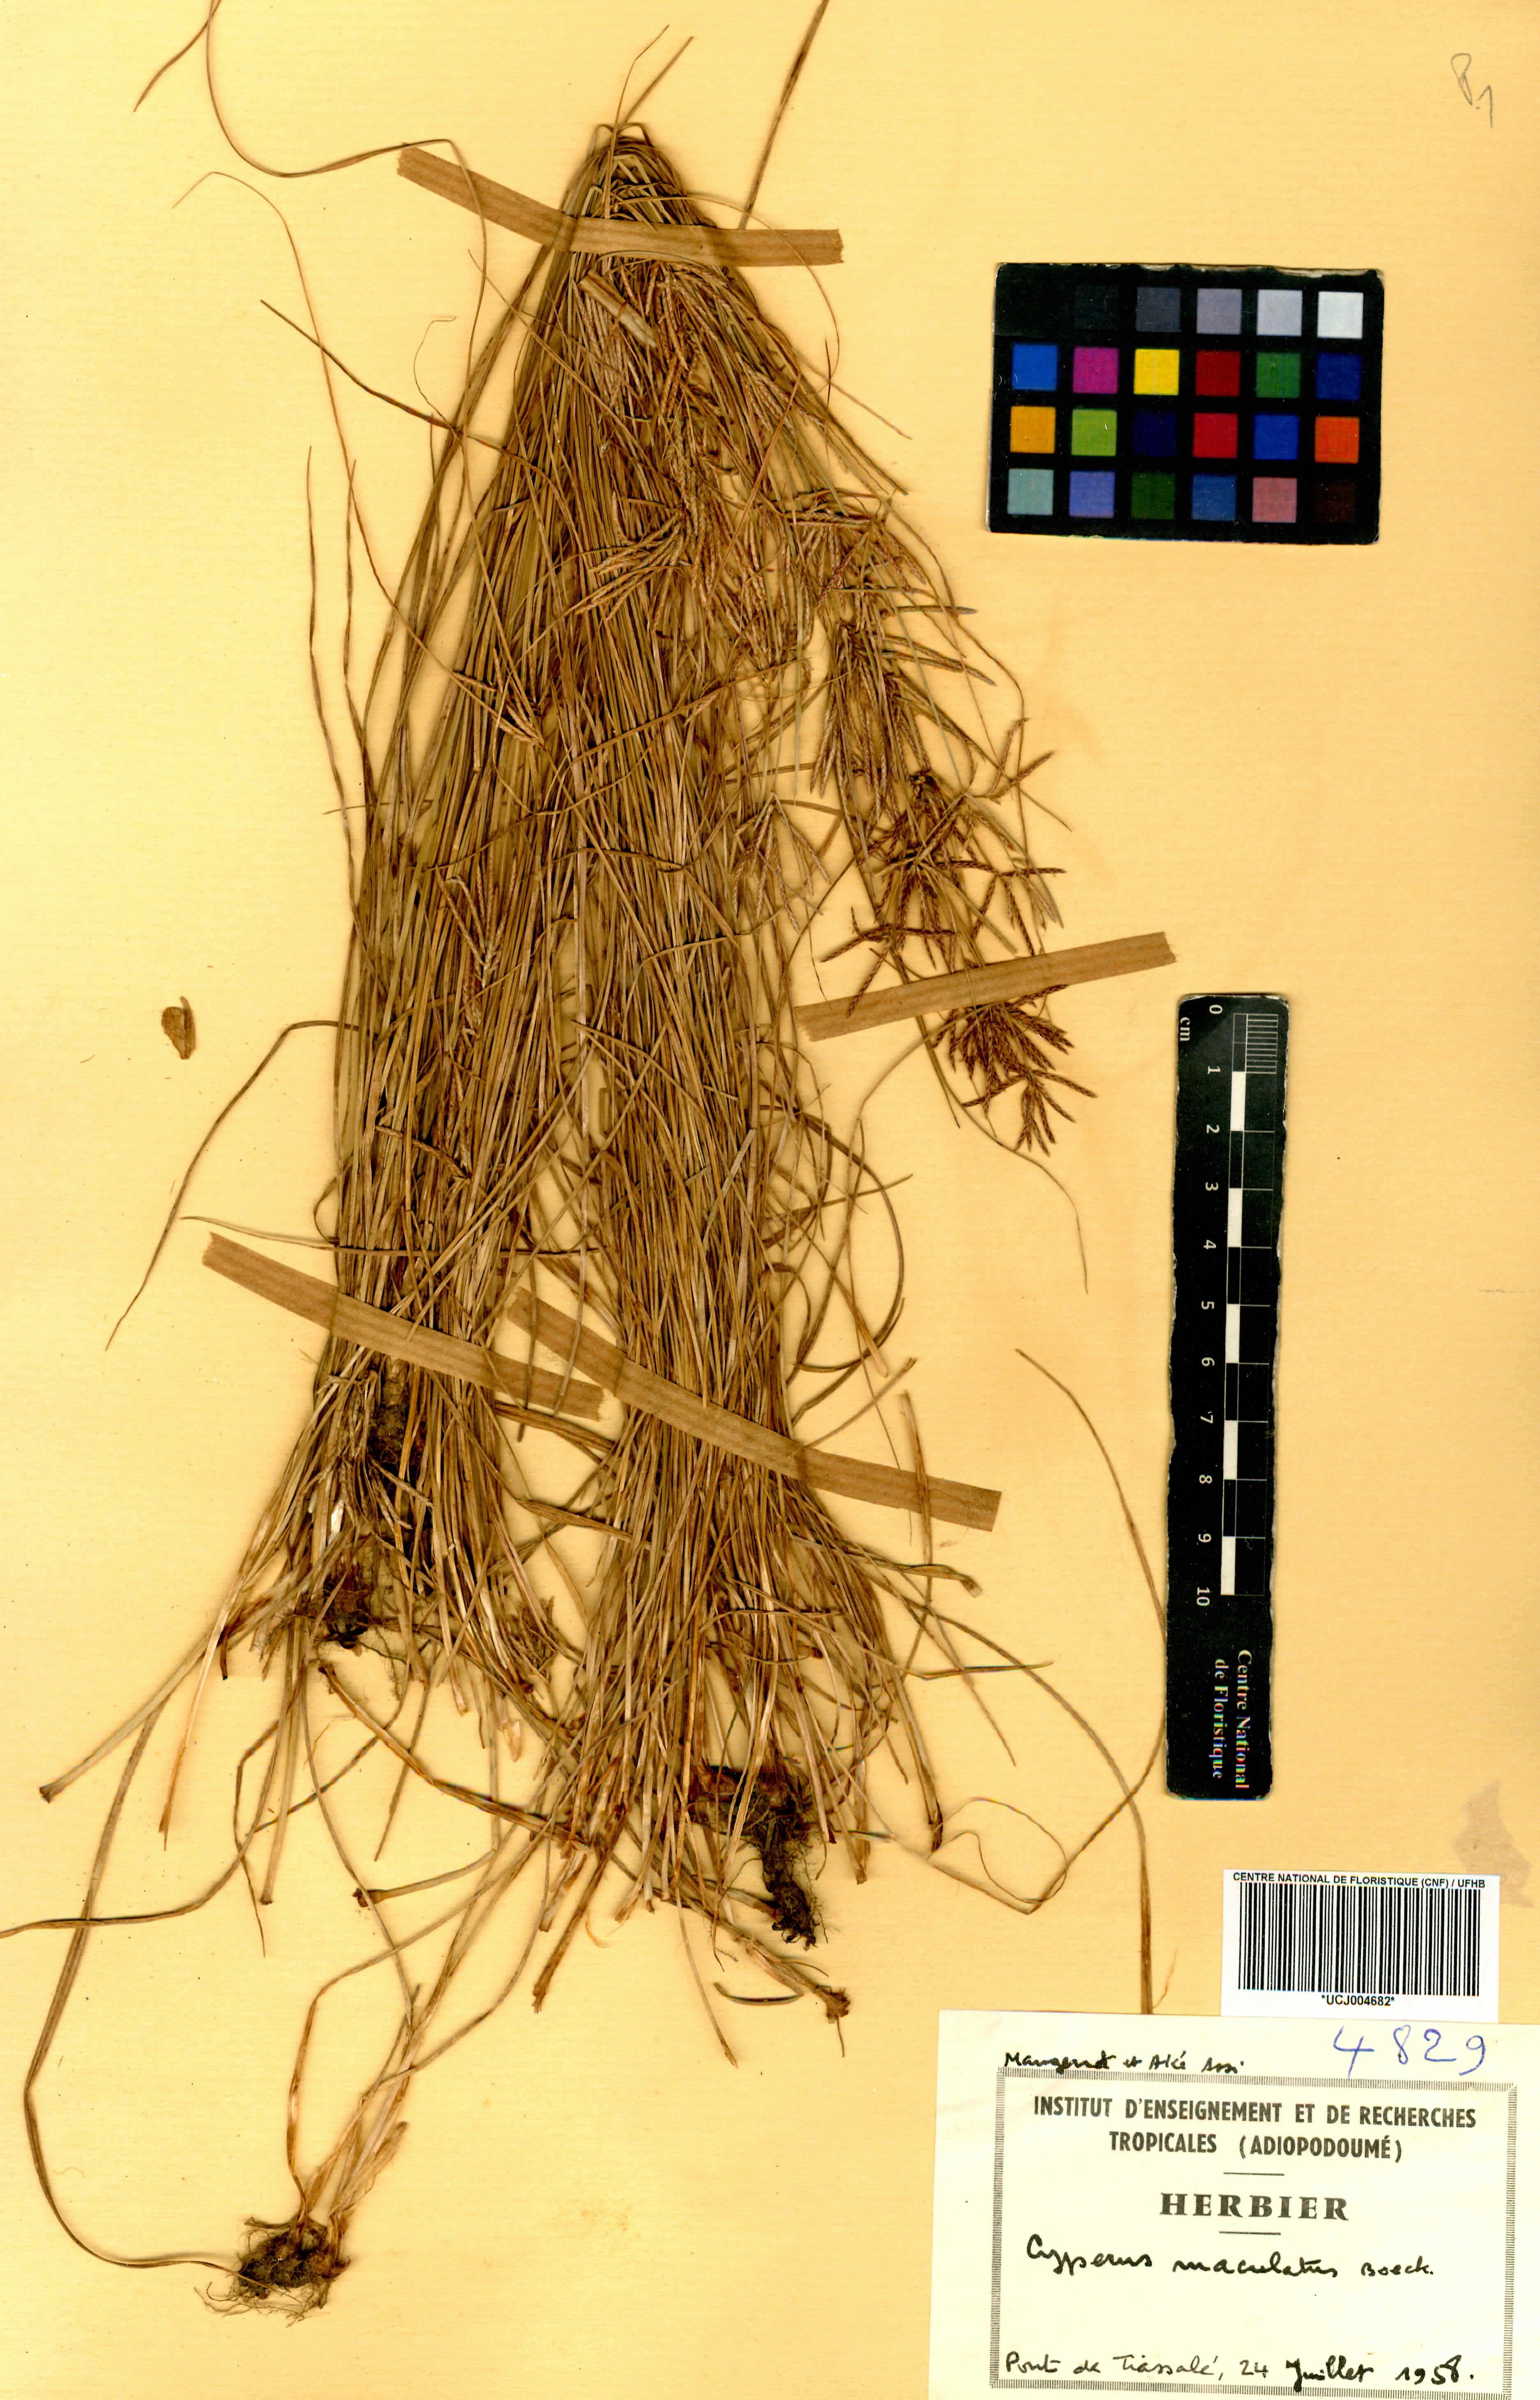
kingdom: Plantae
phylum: Tracheophyta
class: Liliopsida
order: Poales
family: Cyperaceae
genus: Cyperus
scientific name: Cyperus maculatus
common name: Maculated sedge
